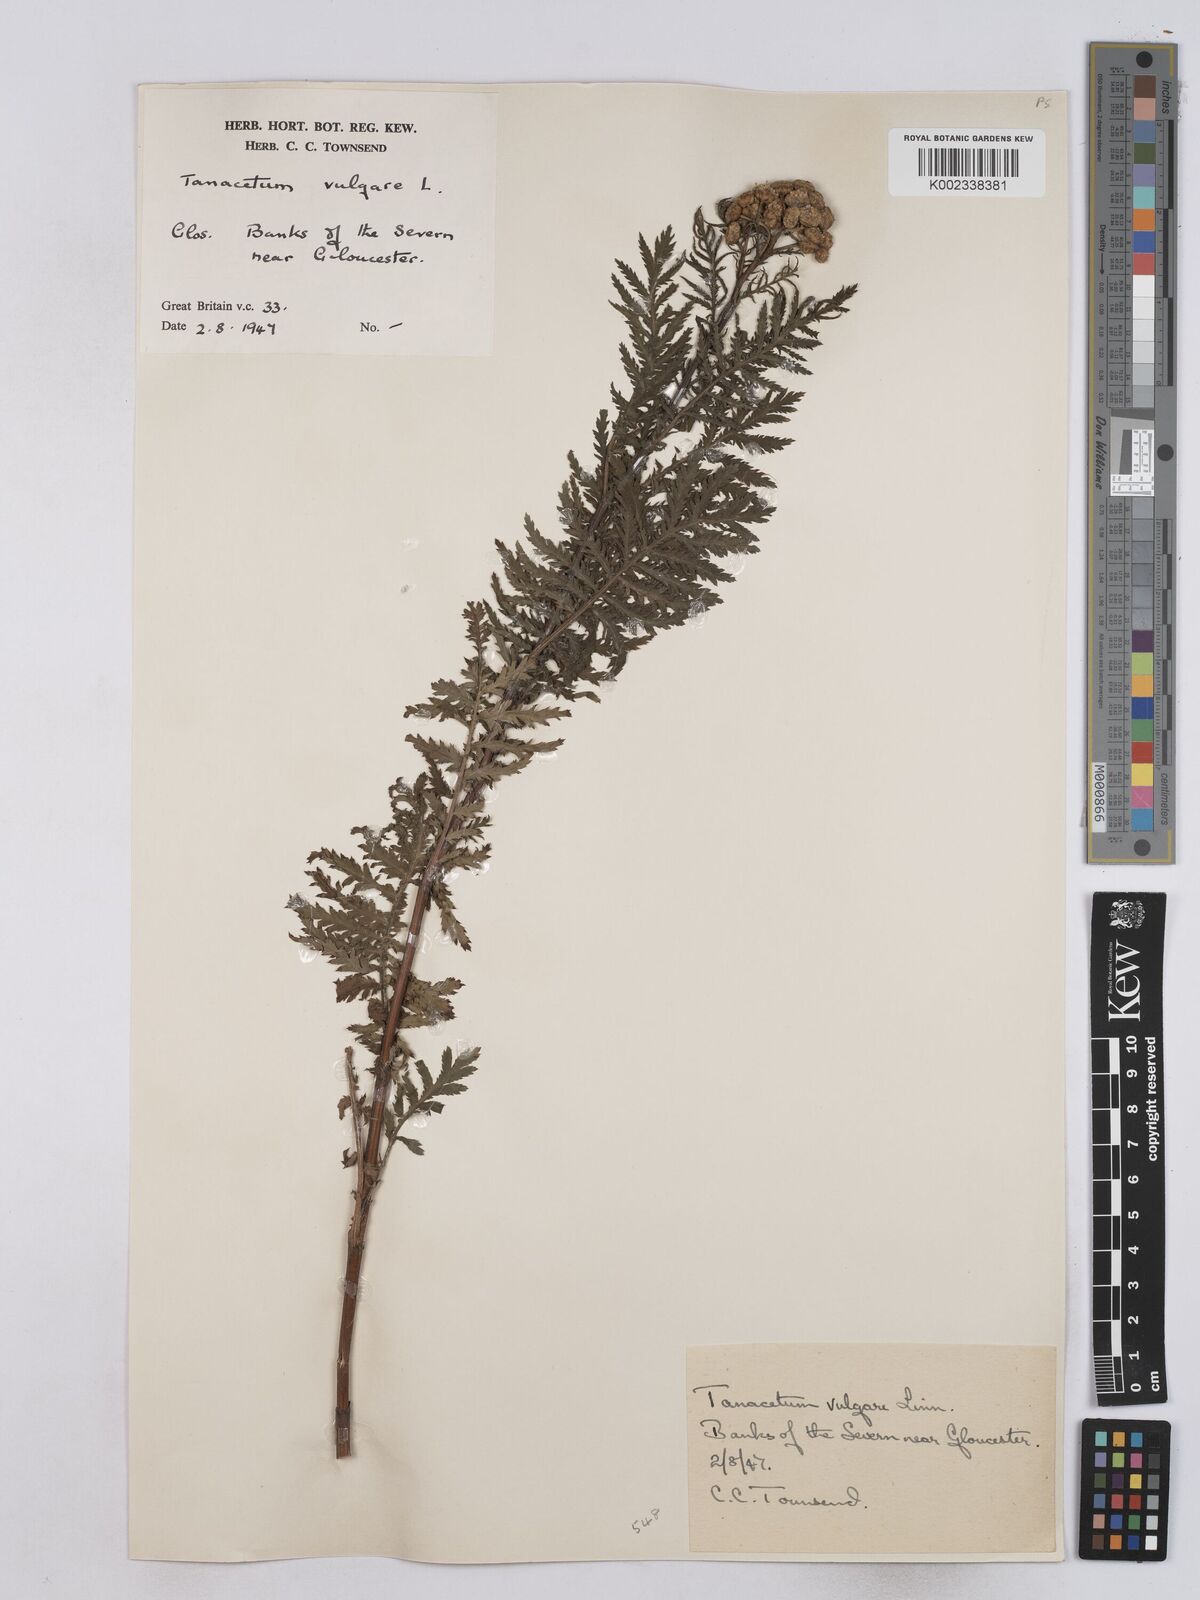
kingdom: Plantae
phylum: Tracheophyta
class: Magnoliopsida
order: Asterales
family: Asteraceae
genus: Tanacetum
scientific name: Tanacetum vulgare
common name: Common tansy
